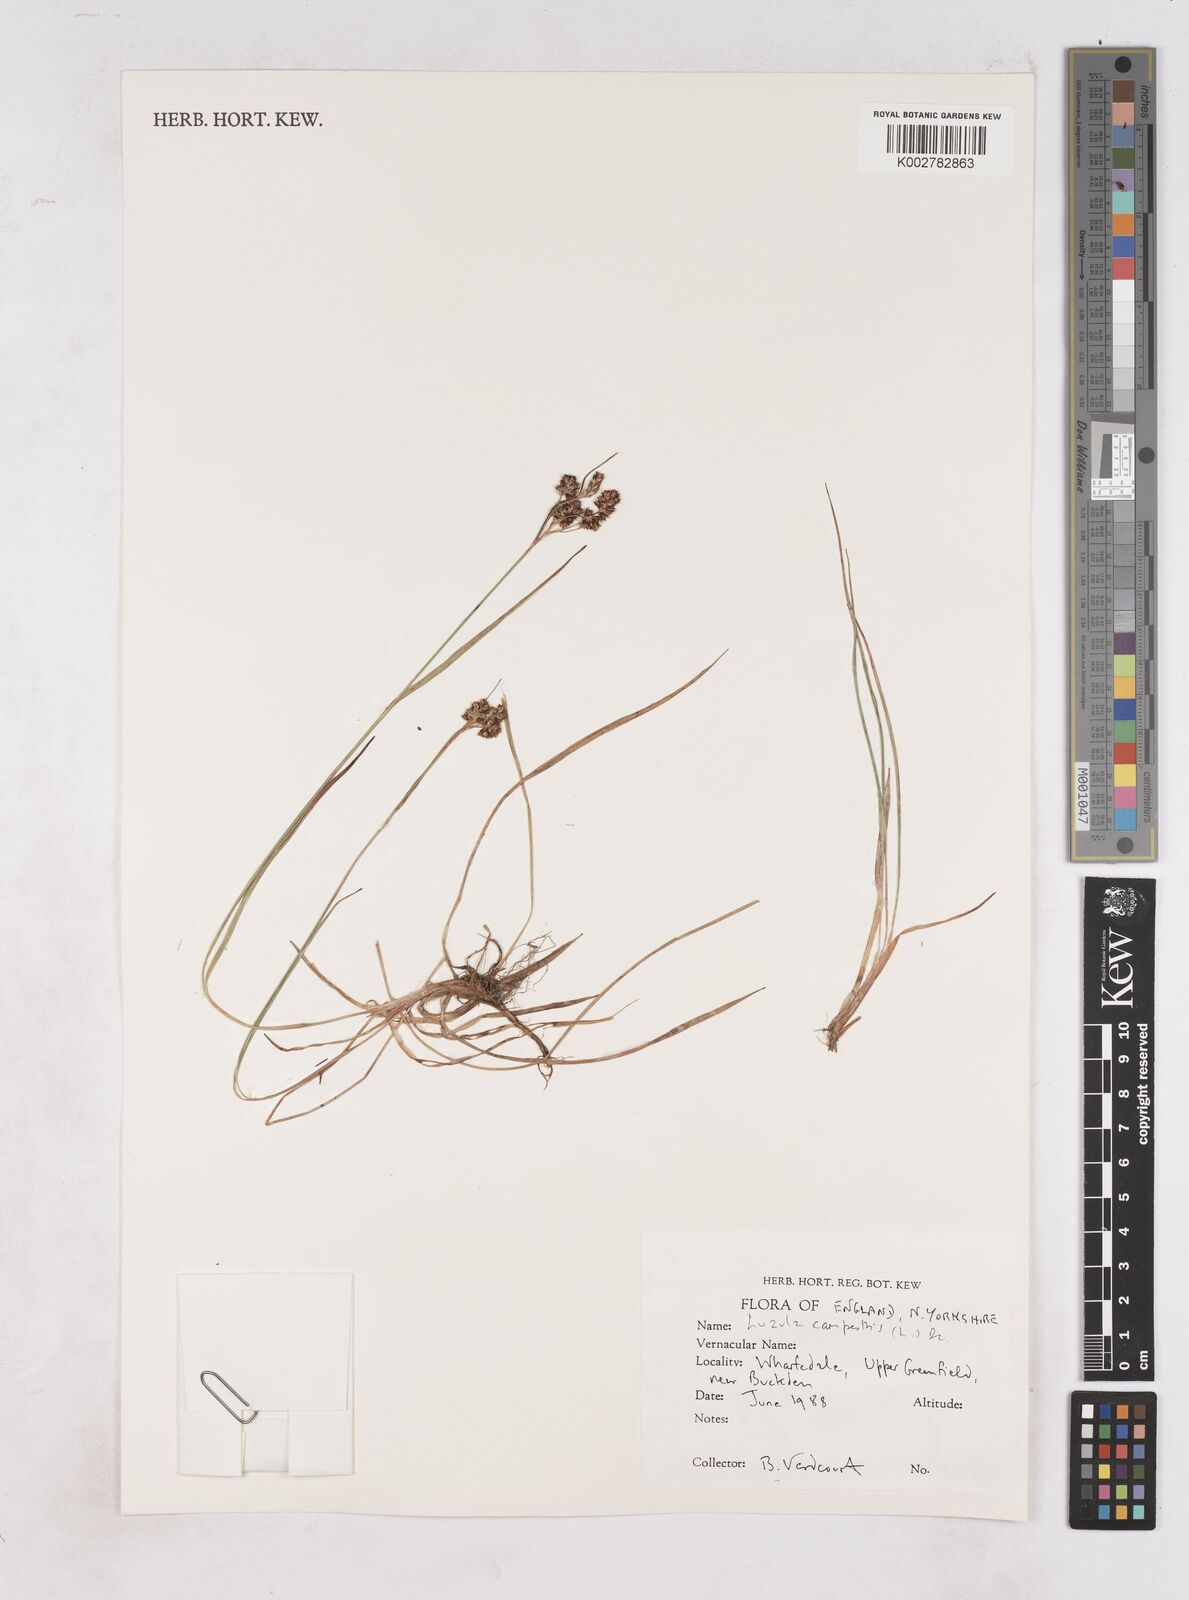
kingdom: Plantae
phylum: Tracheophyta
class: Liliopsida
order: Poales
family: Juncaceae
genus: Luzula
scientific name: Luzula campestris
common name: Field wood-rush
